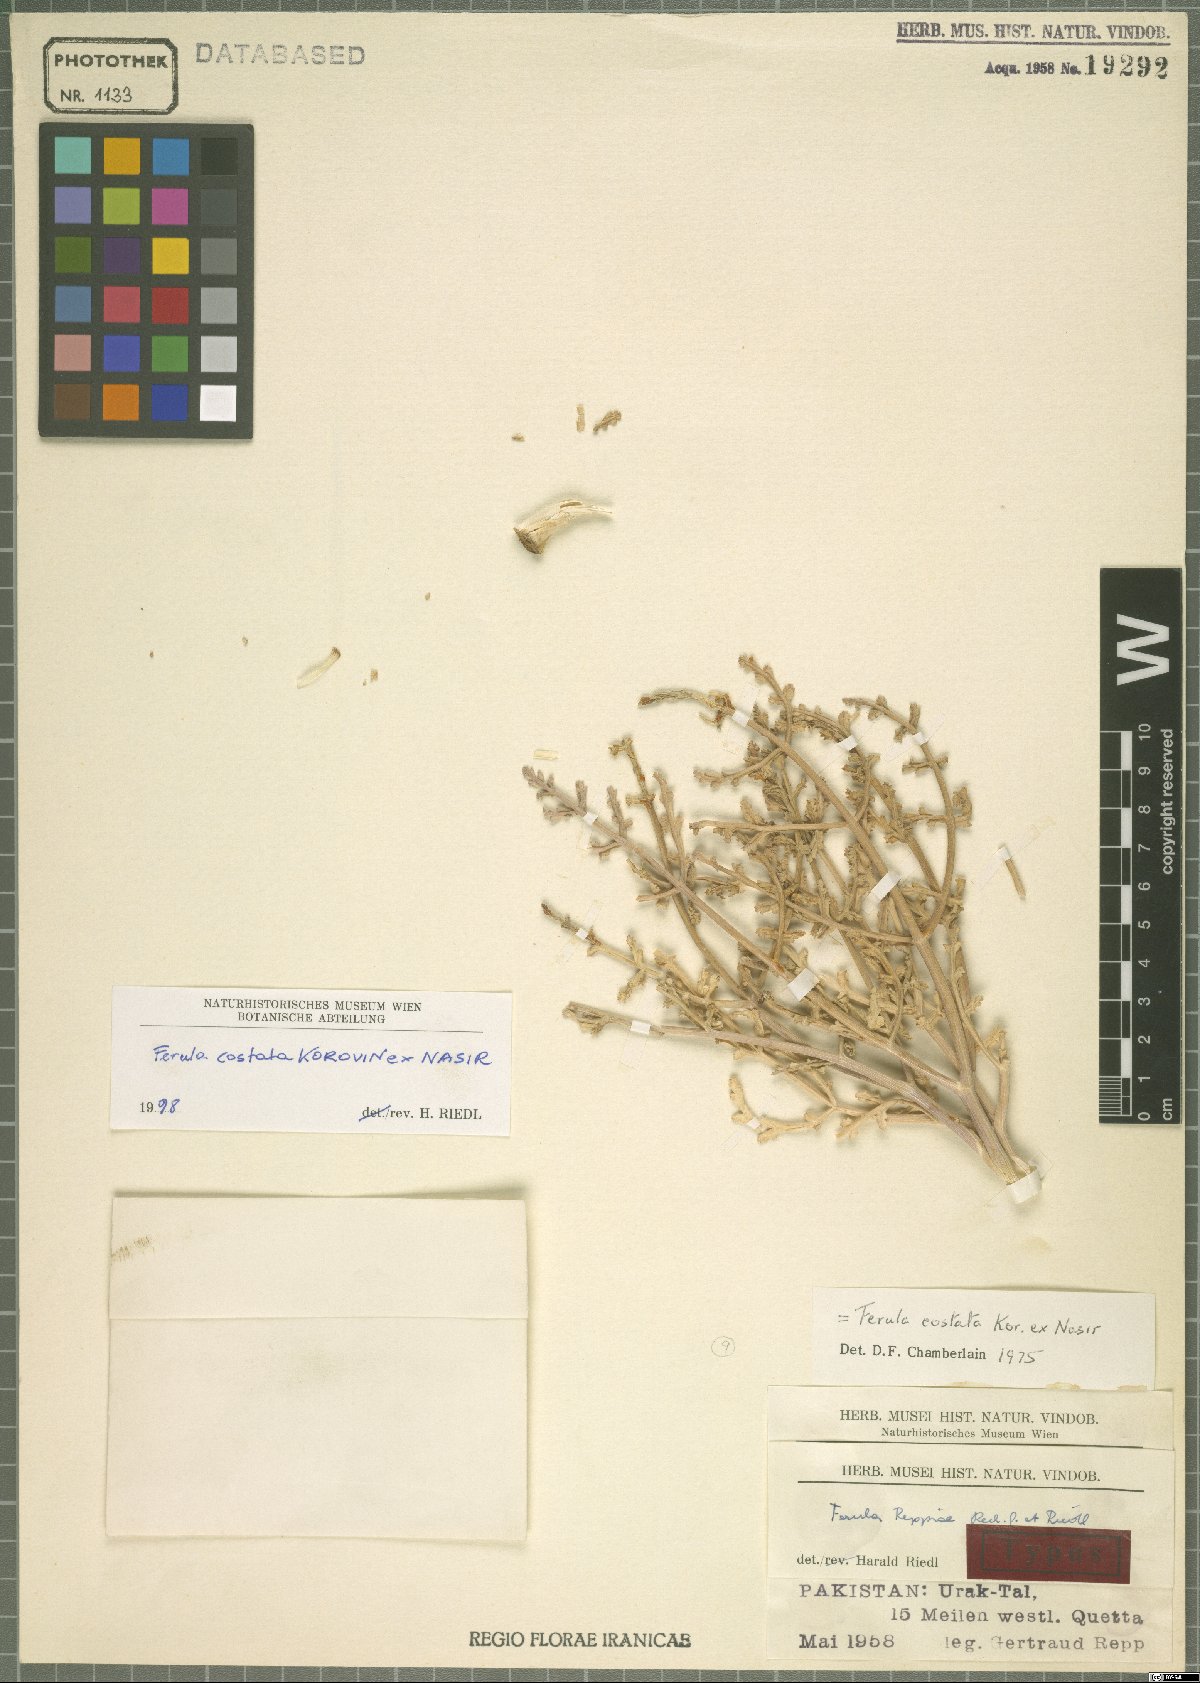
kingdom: Plantae
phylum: Tracheophyta
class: Magnoliopsida
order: Apiales
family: Apiaceae
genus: Ferula
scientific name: Ferula costata
